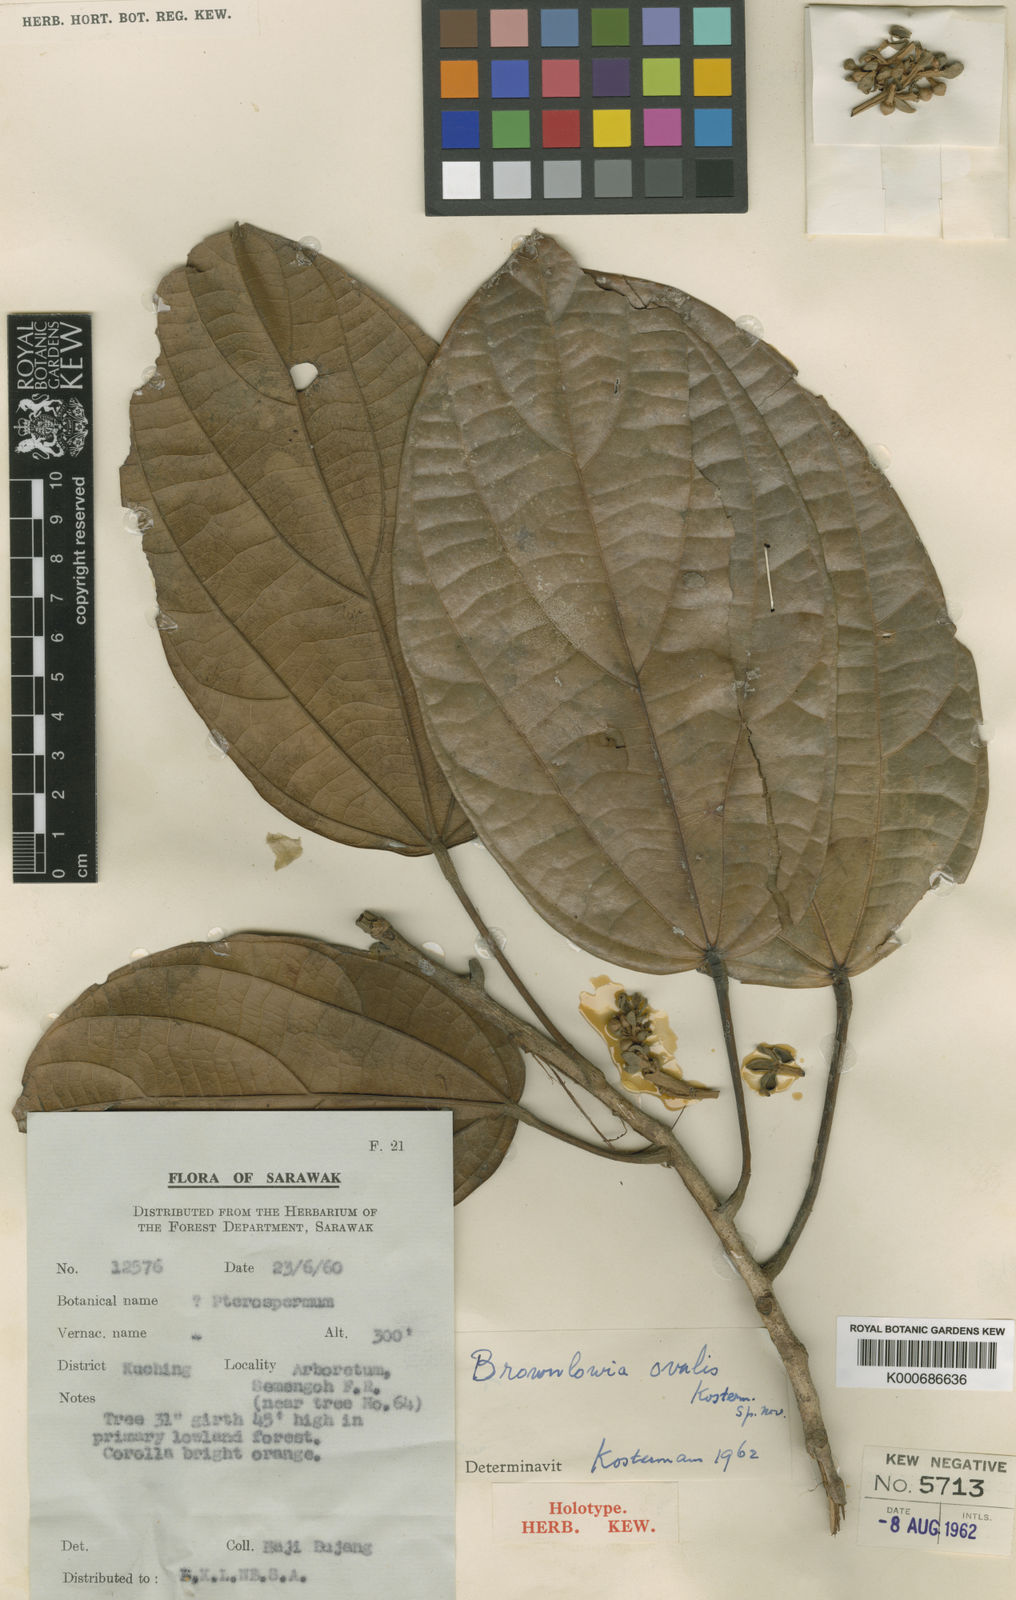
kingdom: Plantae
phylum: Tracheophyta
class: Magnoliopsida
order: Malvales
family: Malvaceae
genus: Brownlowia
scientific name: Brownlowia ovalis
